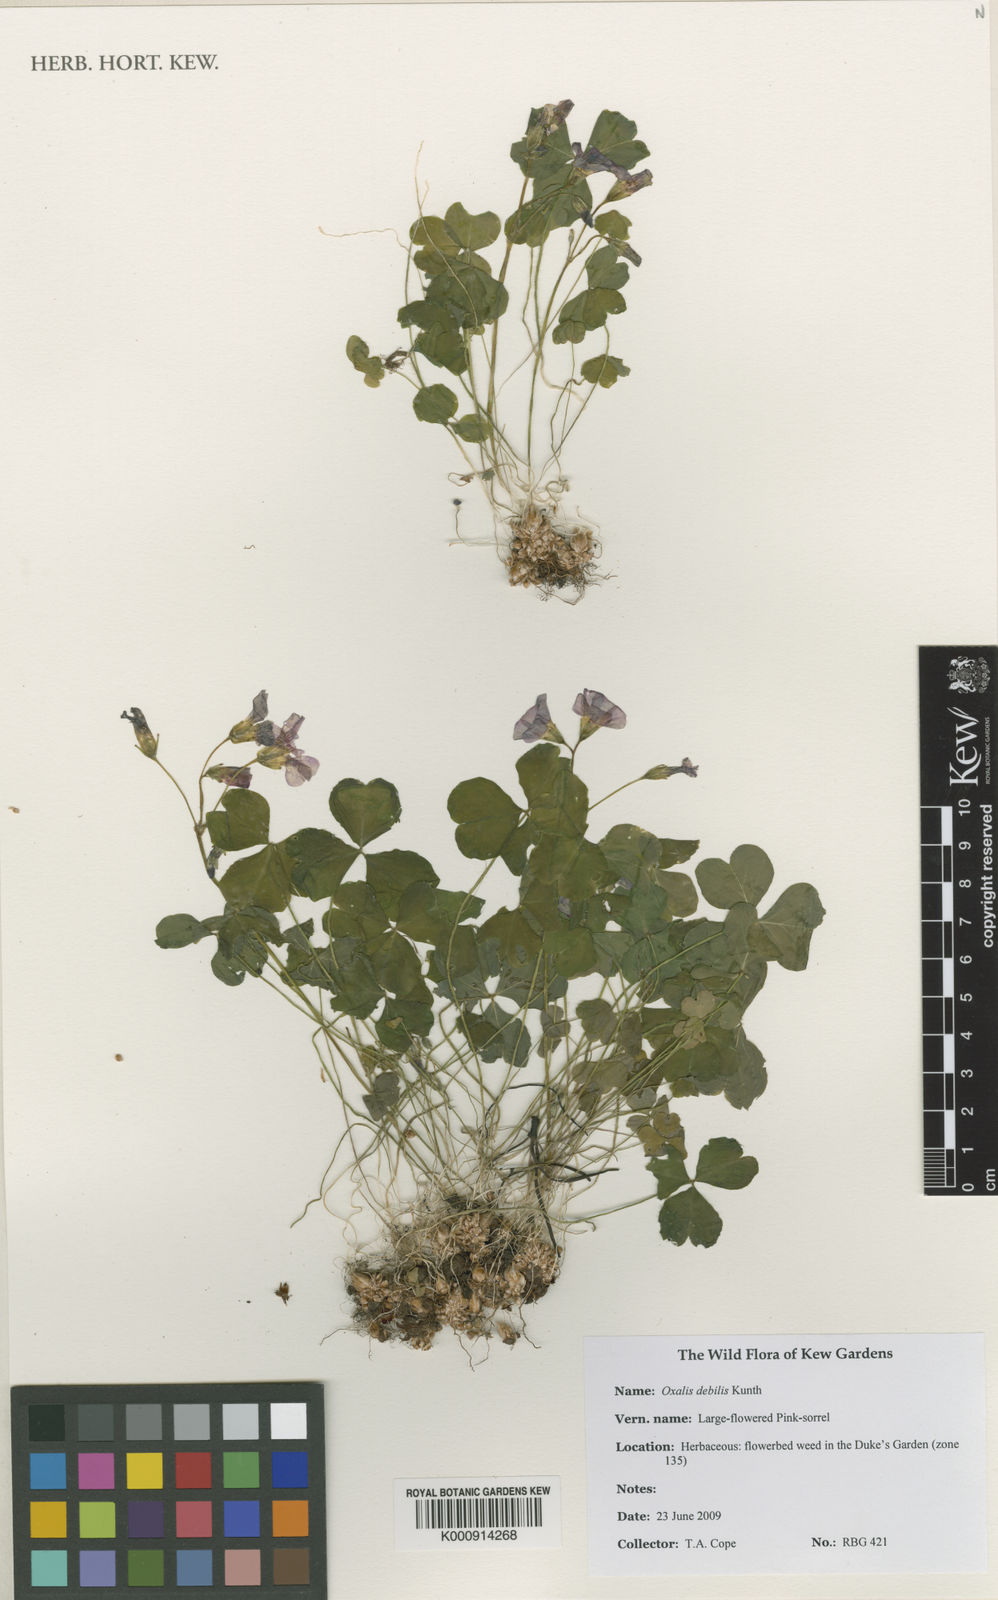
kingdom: Plantae
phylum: Tracheophyta
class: Magnoliopsida
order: Oxalidales
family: Oxalidaceae
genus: Oxalis
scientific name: Oxalis debilis
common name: Large-flowered pink-sorrel
